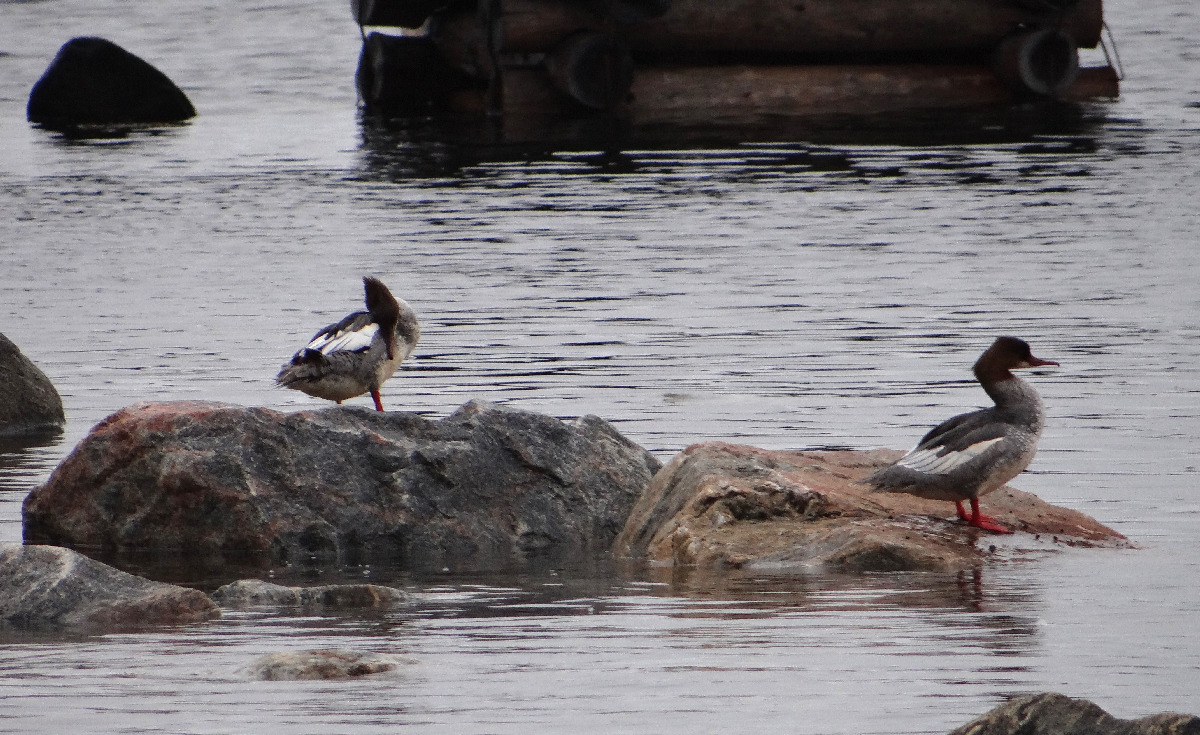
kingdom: Animalia
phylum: Chordata
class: Aves
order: Anseriformes
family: Anatidae
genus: Mergus
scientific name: Mergus merganser
